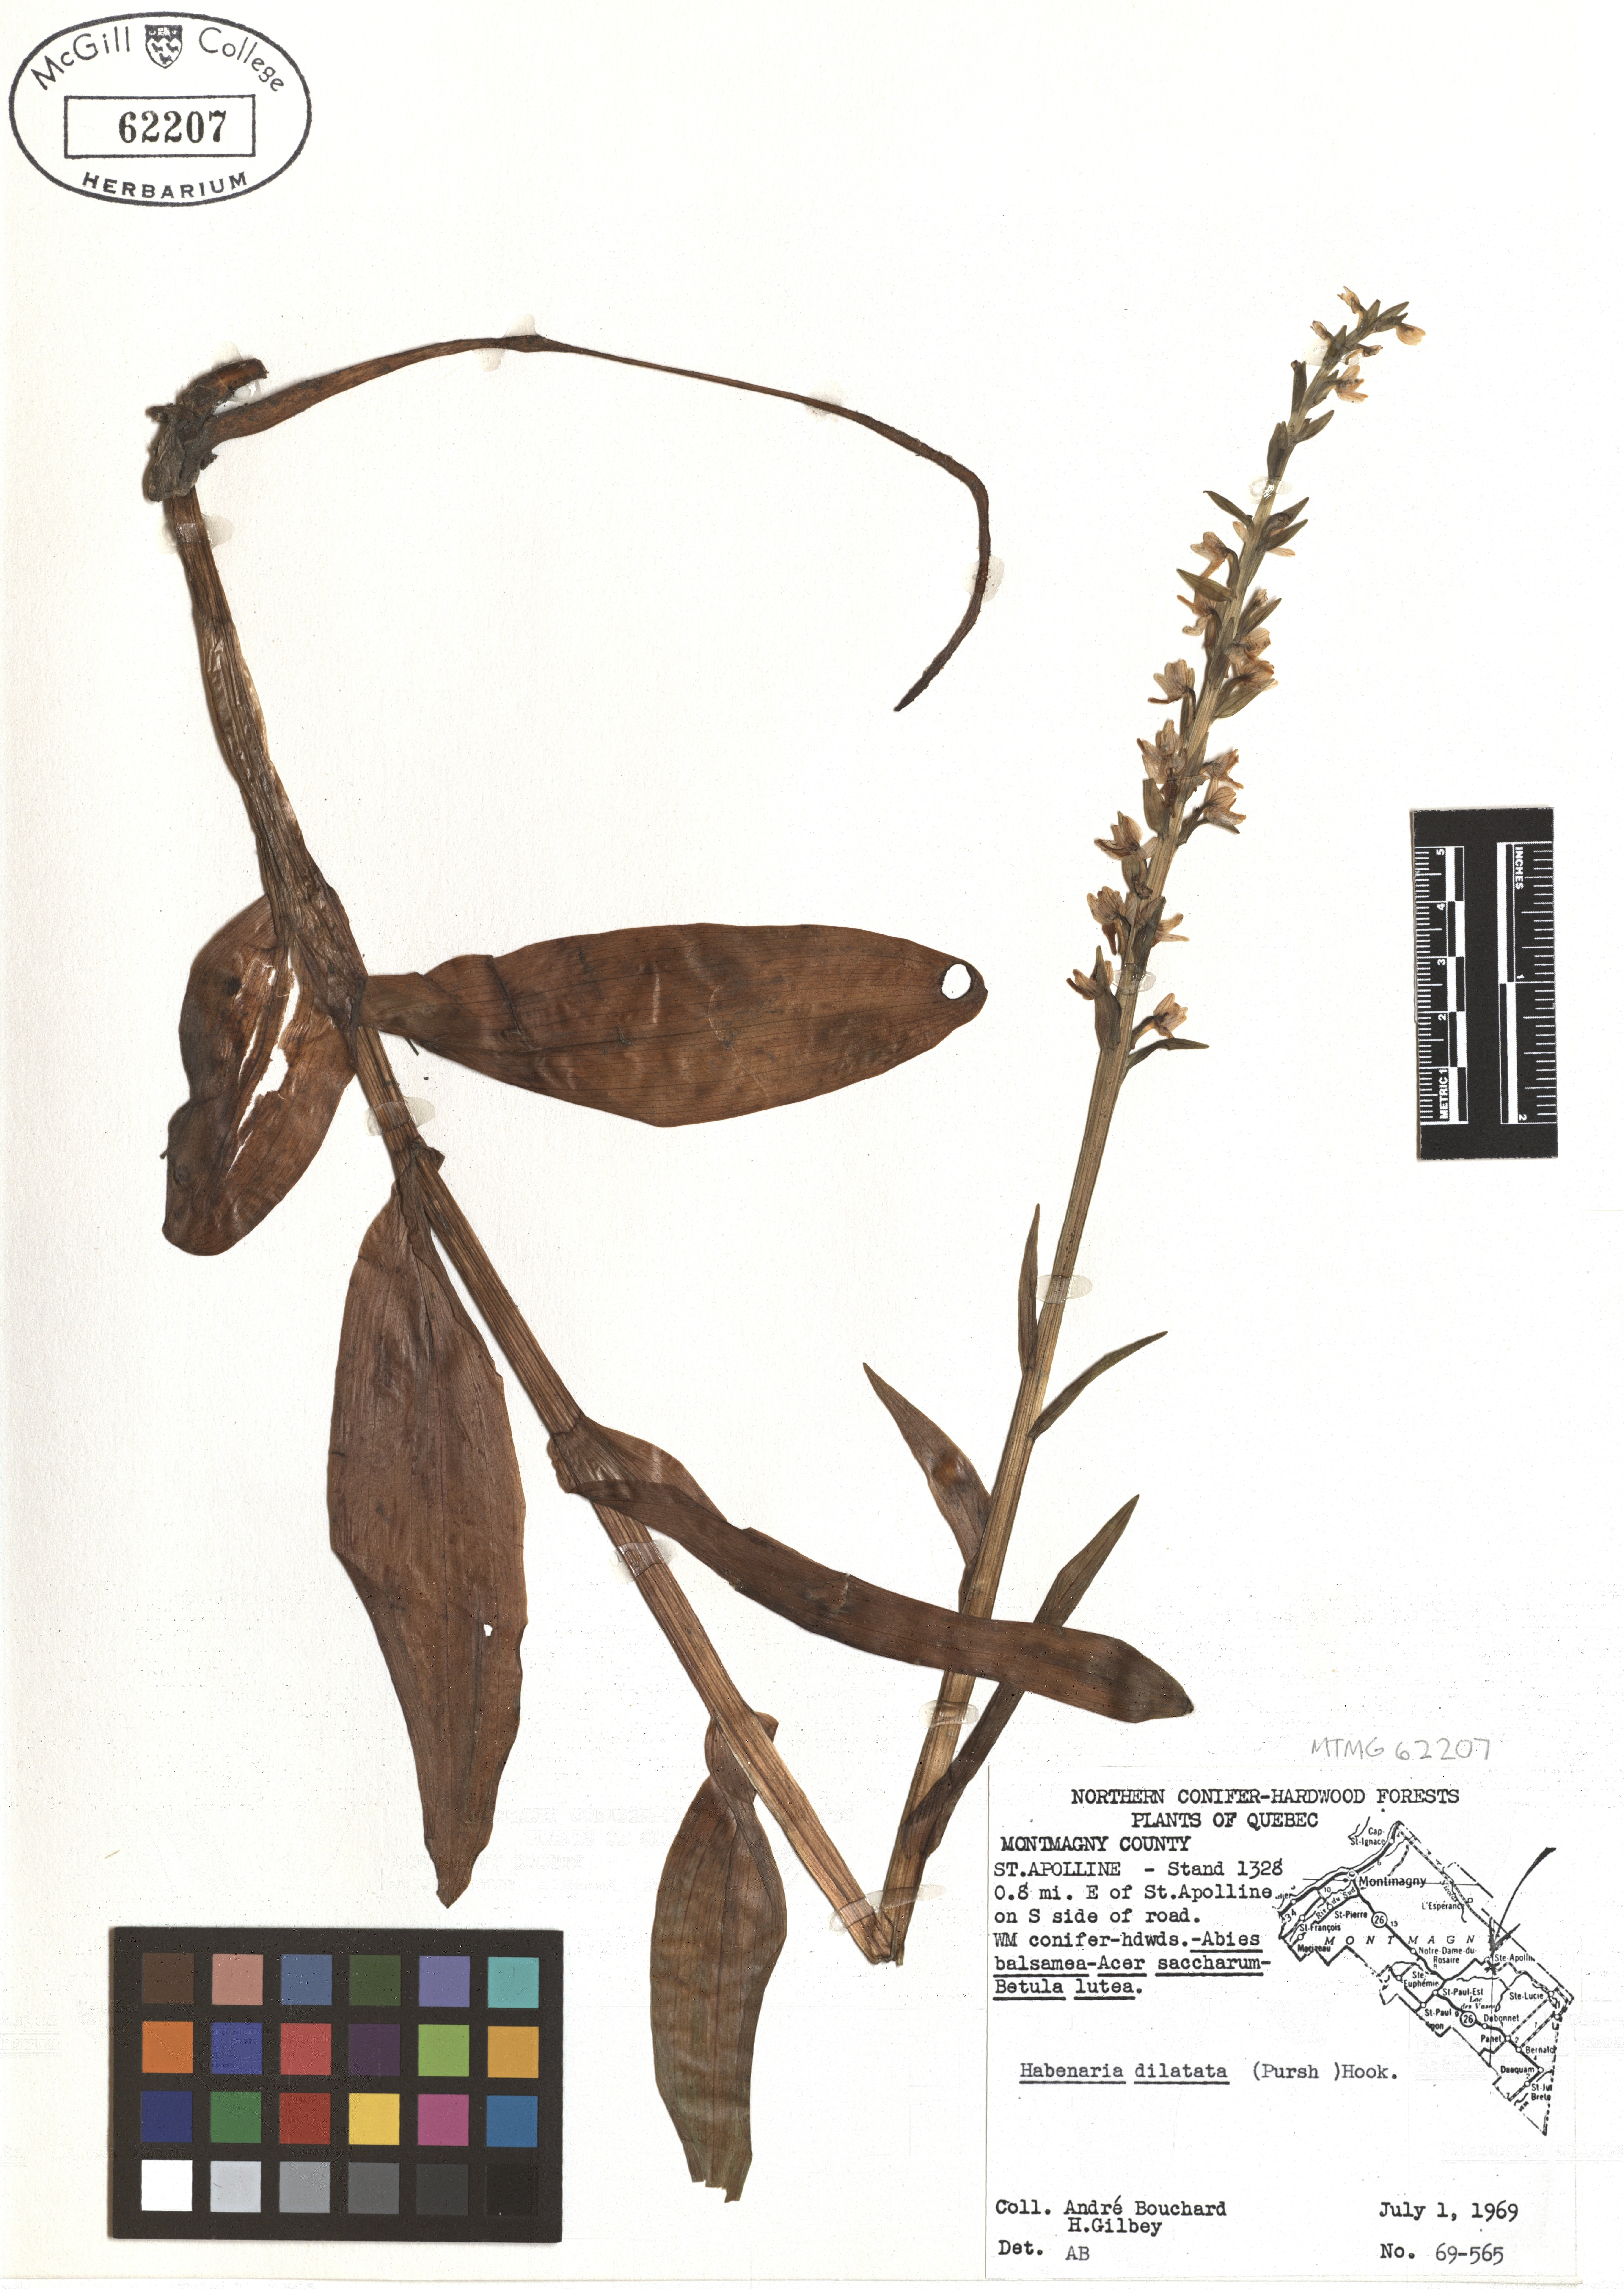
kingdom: Plantae
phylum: Tracheophyta
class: Liliopsida
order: Asparagales
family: Orchidaceae
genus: Platanthera
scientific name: Platanthera dilatata
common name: Bog candles
